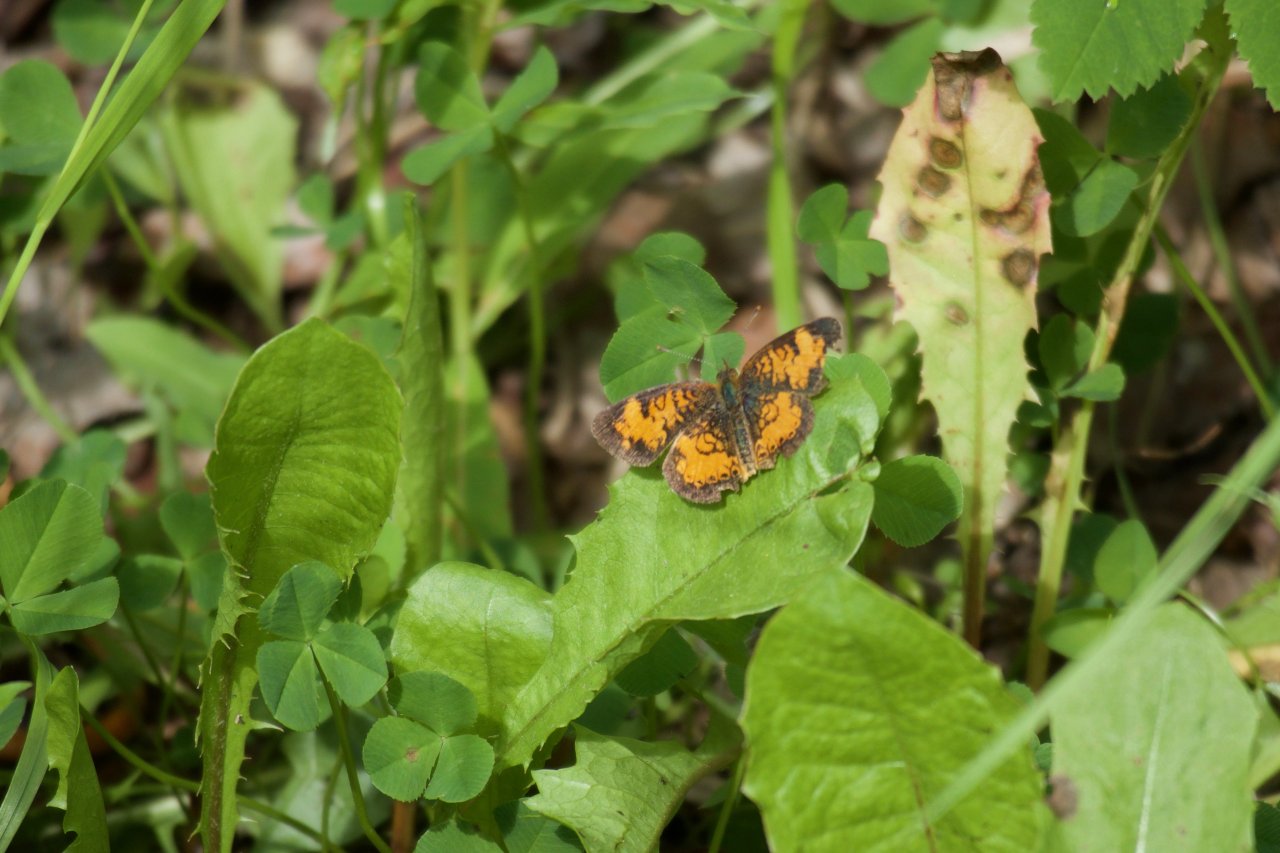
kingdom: Animalia
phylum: Arthropoda
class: Insecta
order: Lepidoptera
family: Nymphalidae
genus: Phyciodes
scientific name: Phyciodes tharos
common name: Northern Crescent
